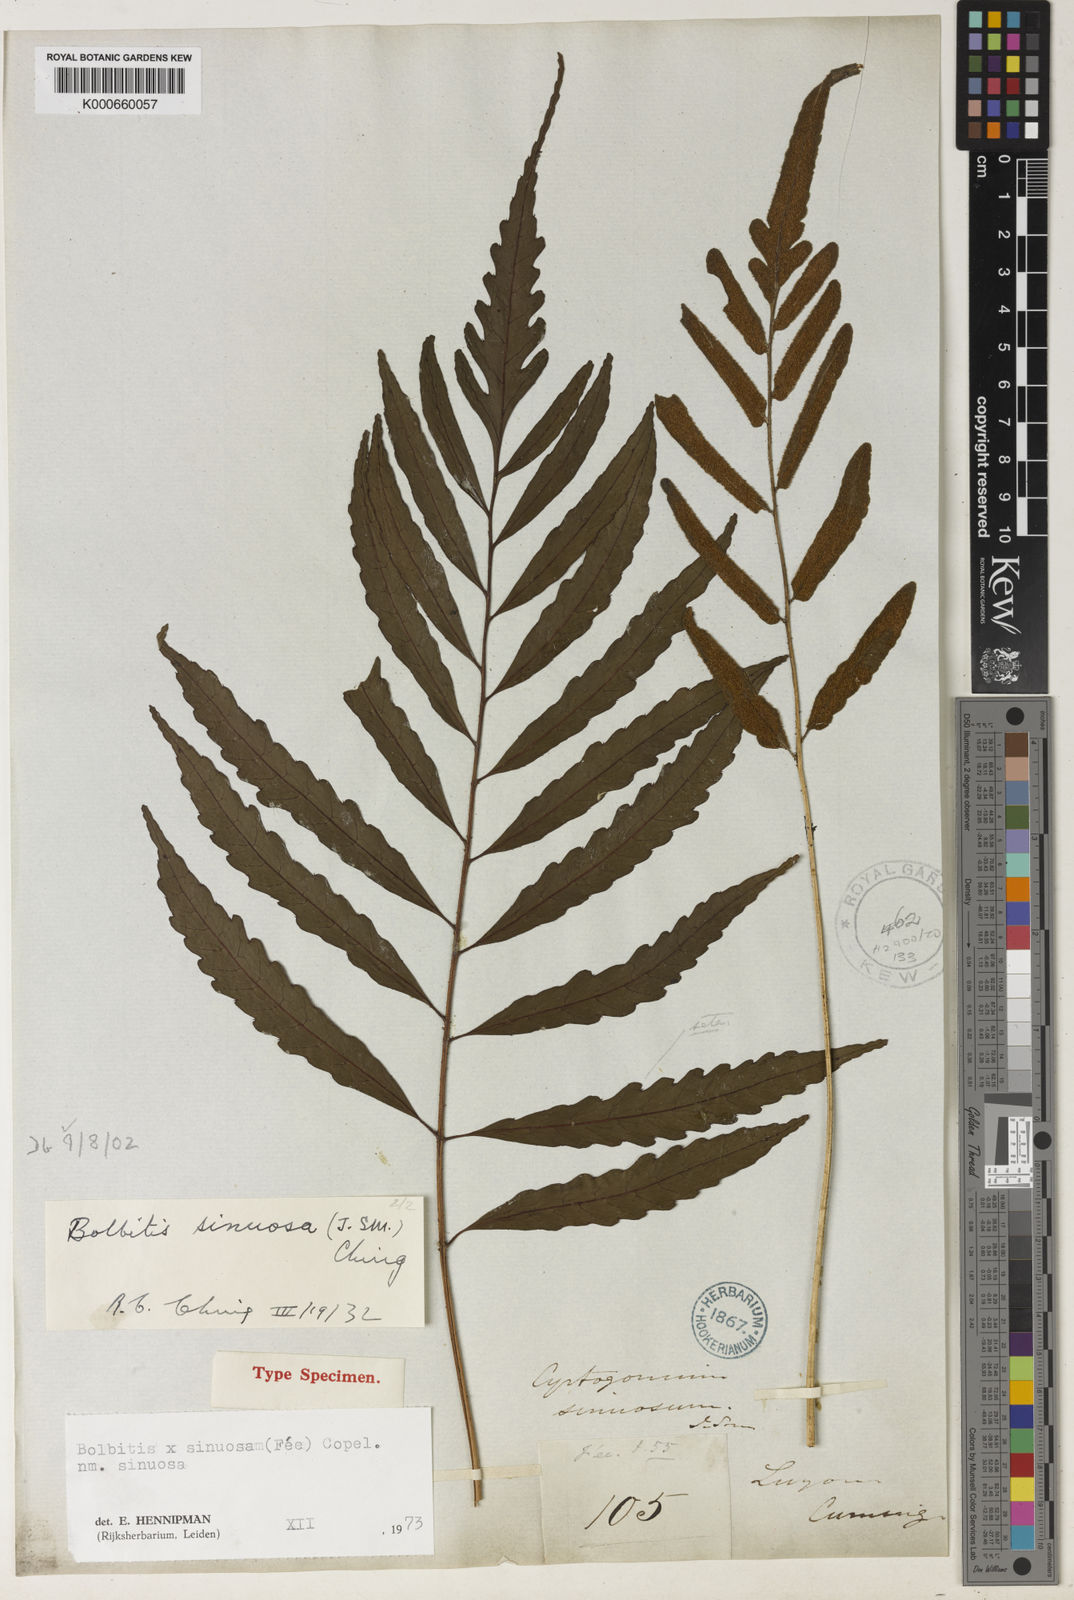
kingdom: Plantae
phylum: Tracheophyta
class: Polypodiopsida
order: Polypodiales
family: Dryopteridaceae
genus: Bolbitis
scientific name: Bolbitis
